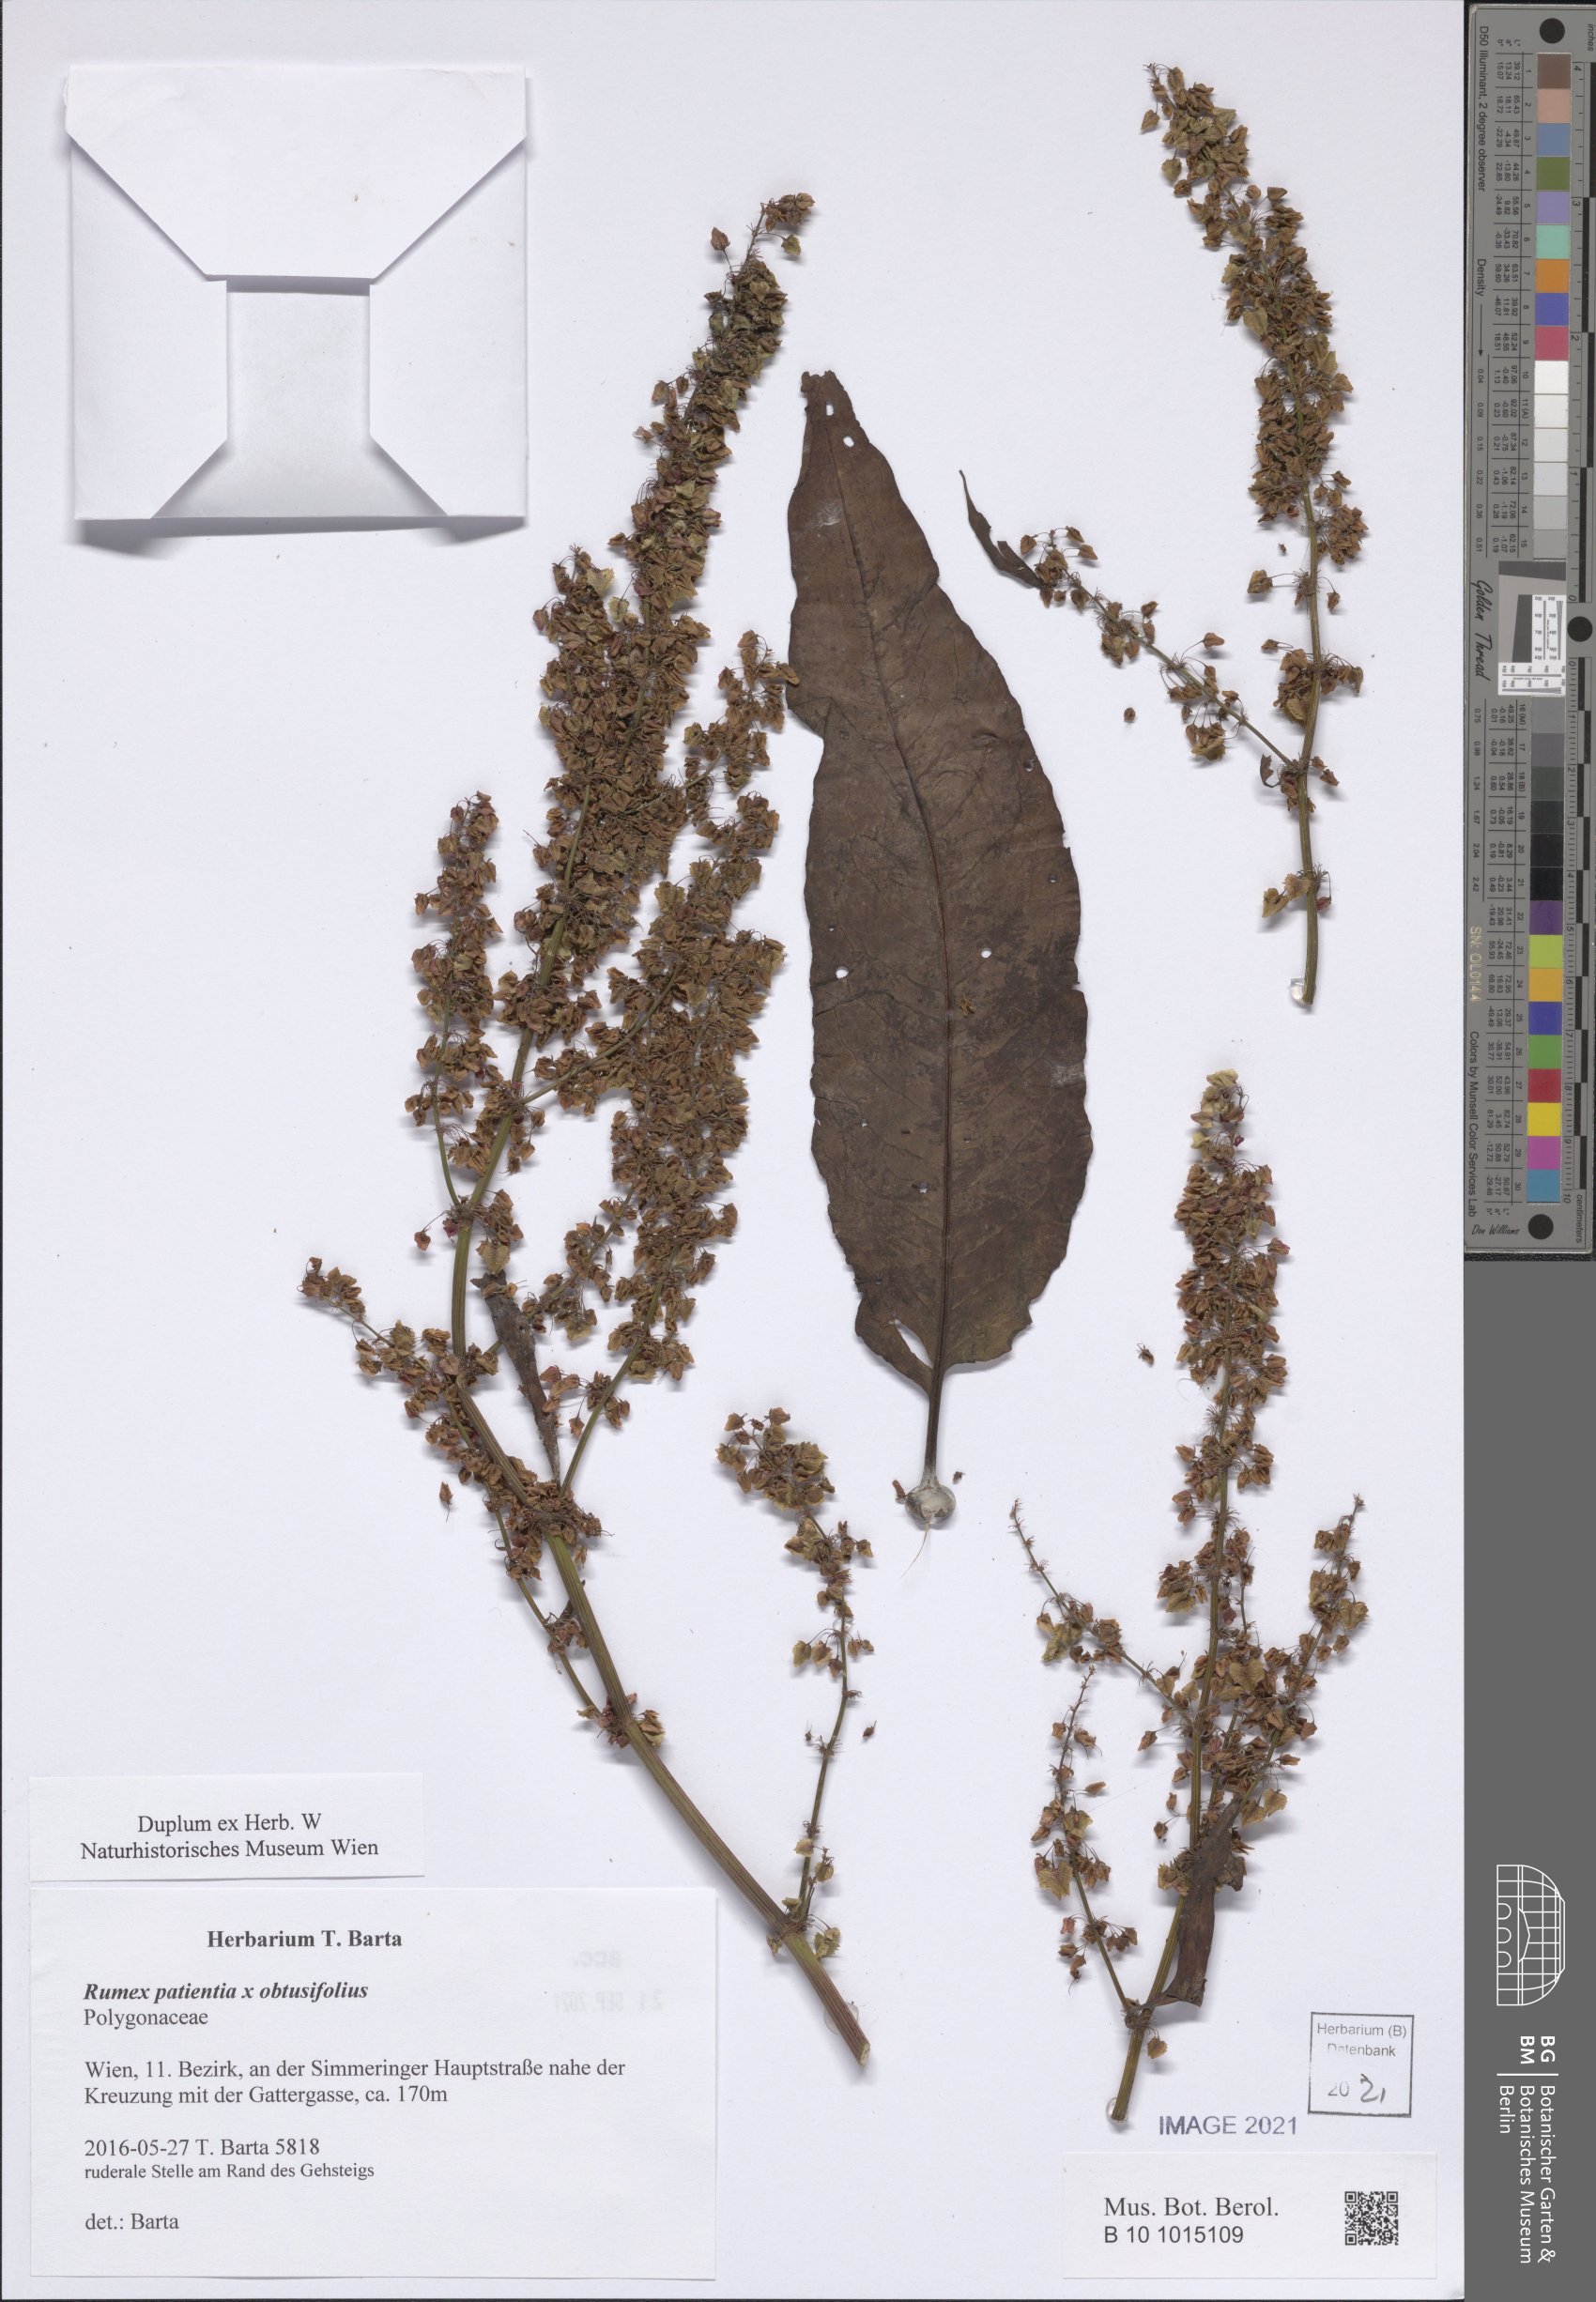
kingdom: Plantae
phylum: Tracheophyta
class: Magnoliopsida
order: Caryophyllales
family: Polygonaceae
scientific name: Polygonaceae
